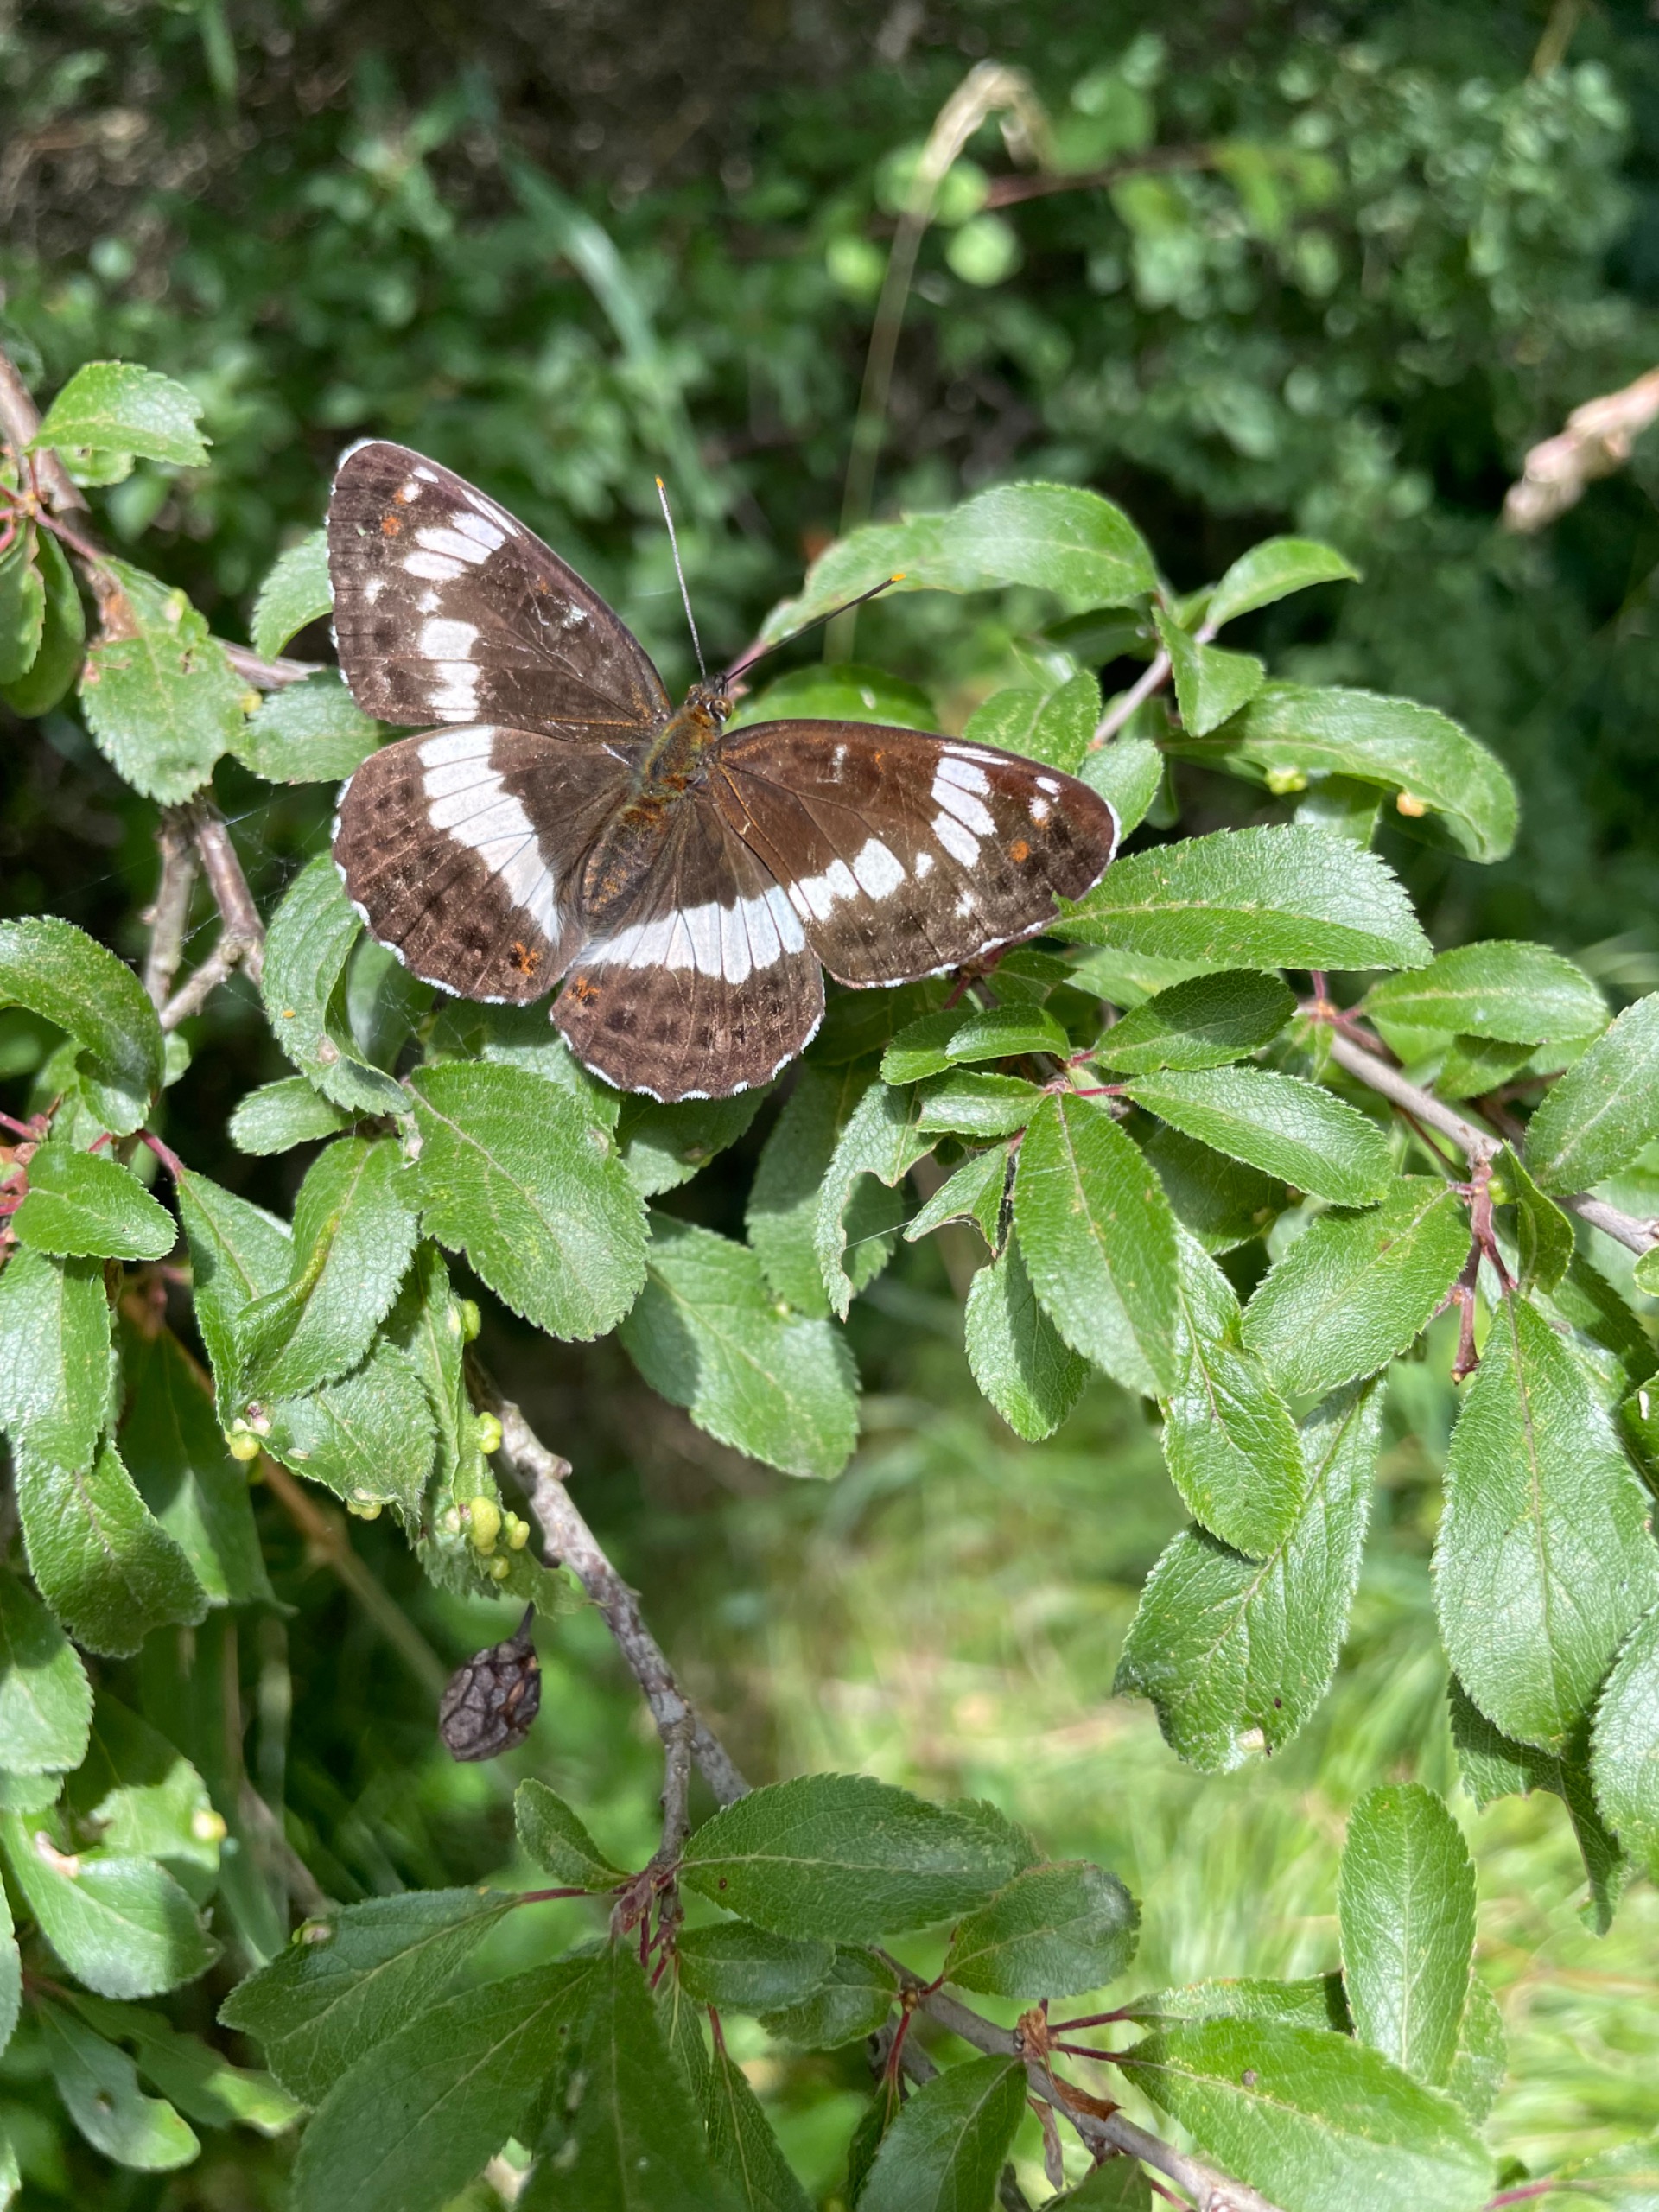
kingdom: Animalia
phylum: Arthropoda
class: Insecta
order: Lepidoptera
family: Nymphalidae
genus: Ladoga
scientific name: Ladoga camilla
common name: Hvid admiral
